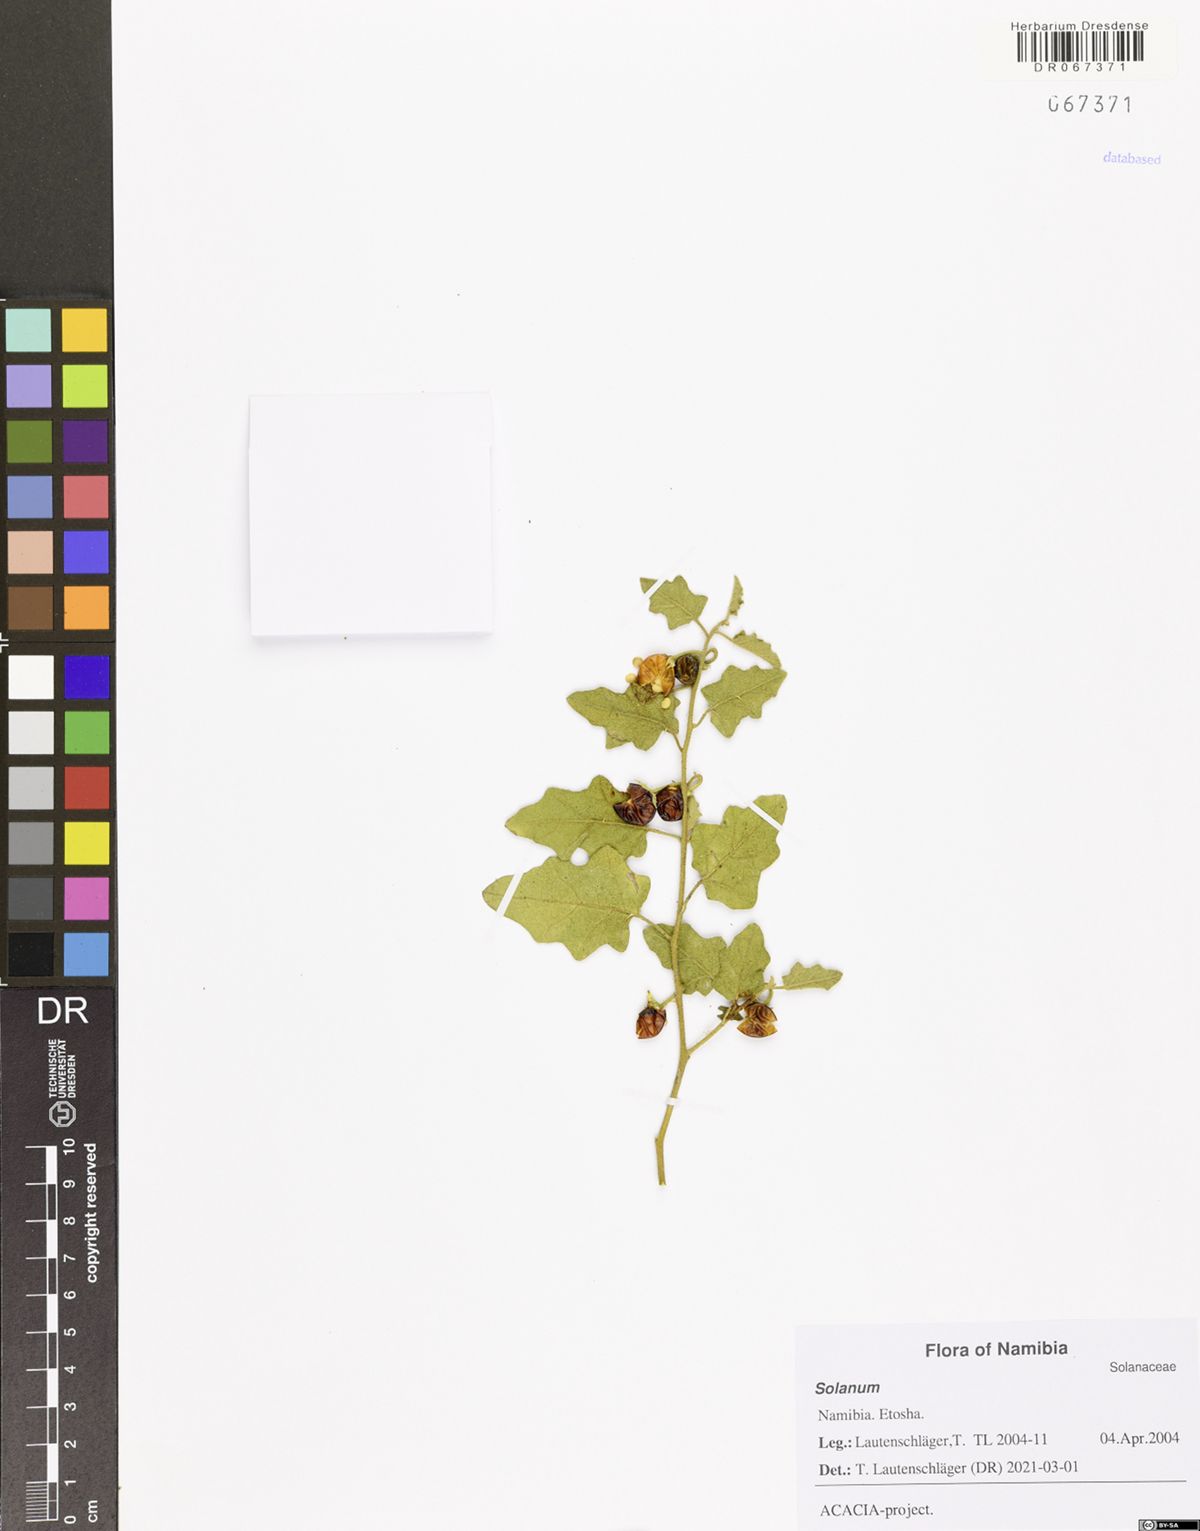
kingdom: Plantae
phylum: Tracheophyta
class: Magnoliopsida
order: Solanales
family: Solanaceae
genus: Solanum
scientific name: Solanum
